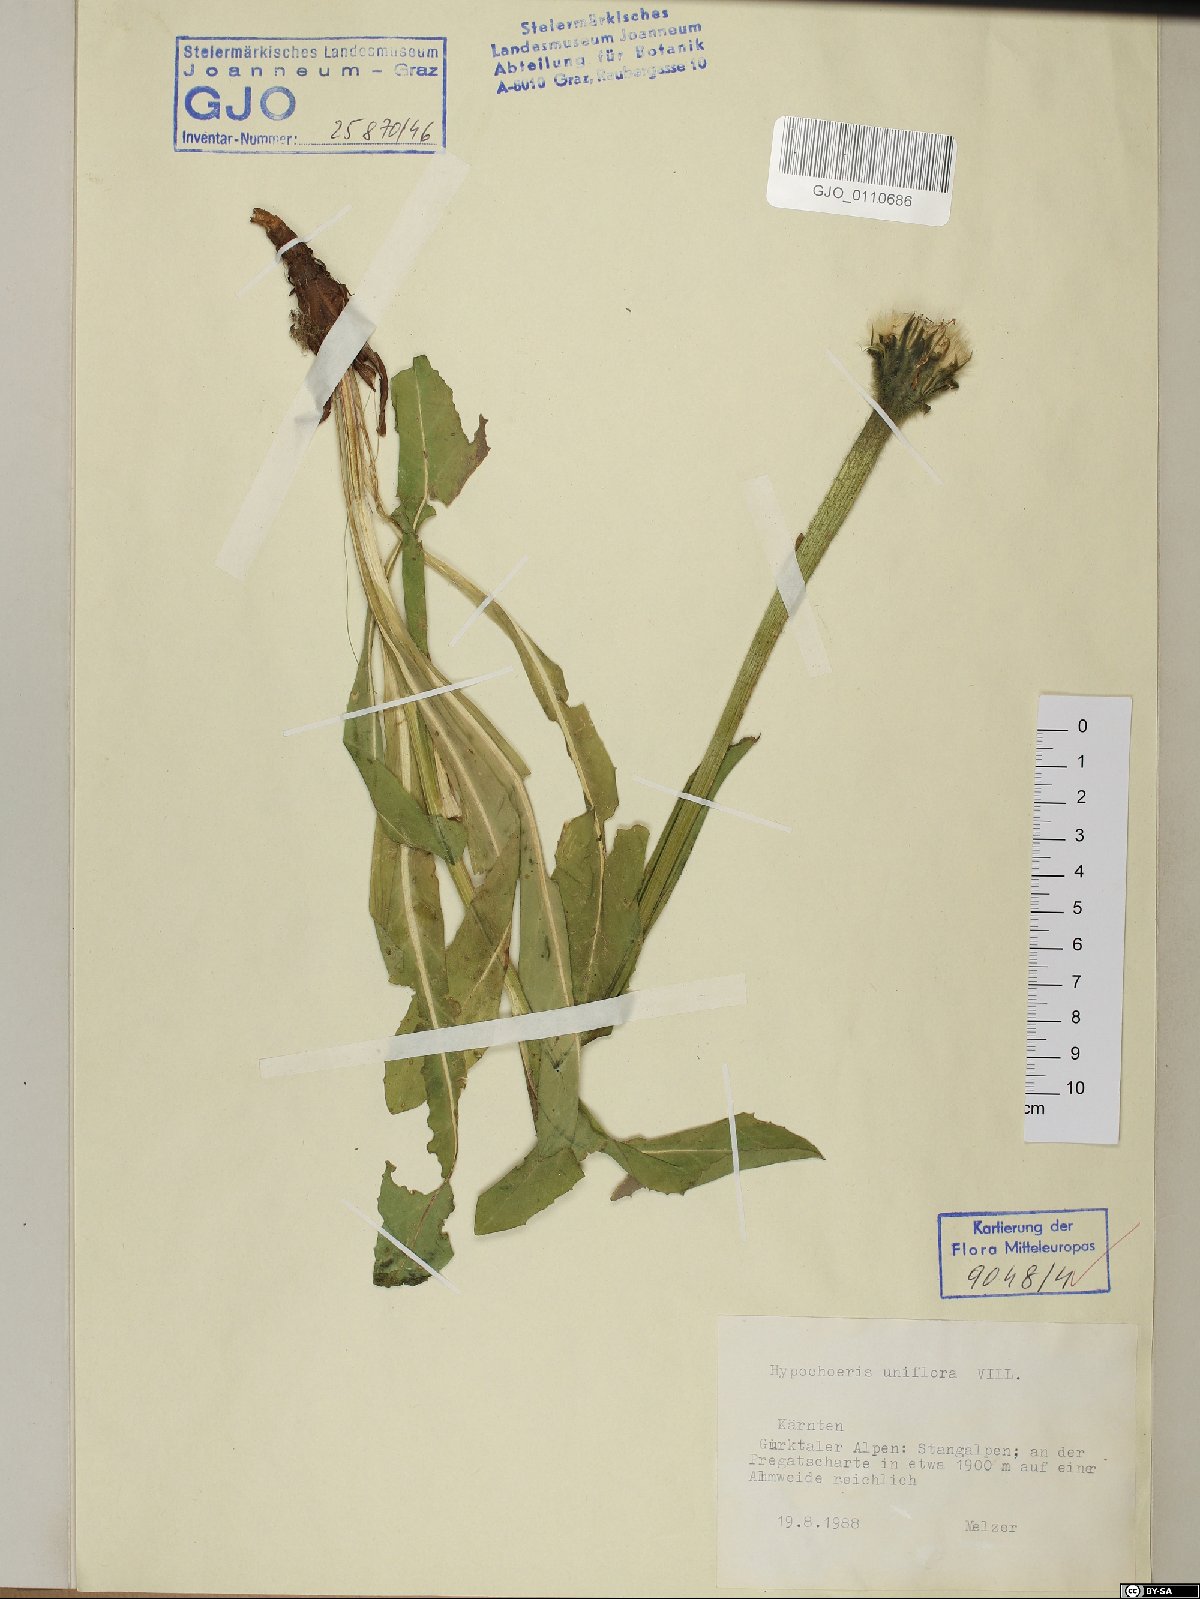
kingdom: Plantae
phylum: Tracheophyta
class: Magnoliopsida
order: Asterales
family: Asteraceae
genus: Trommsdorffia
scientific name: Trommsdorffia uniflora
